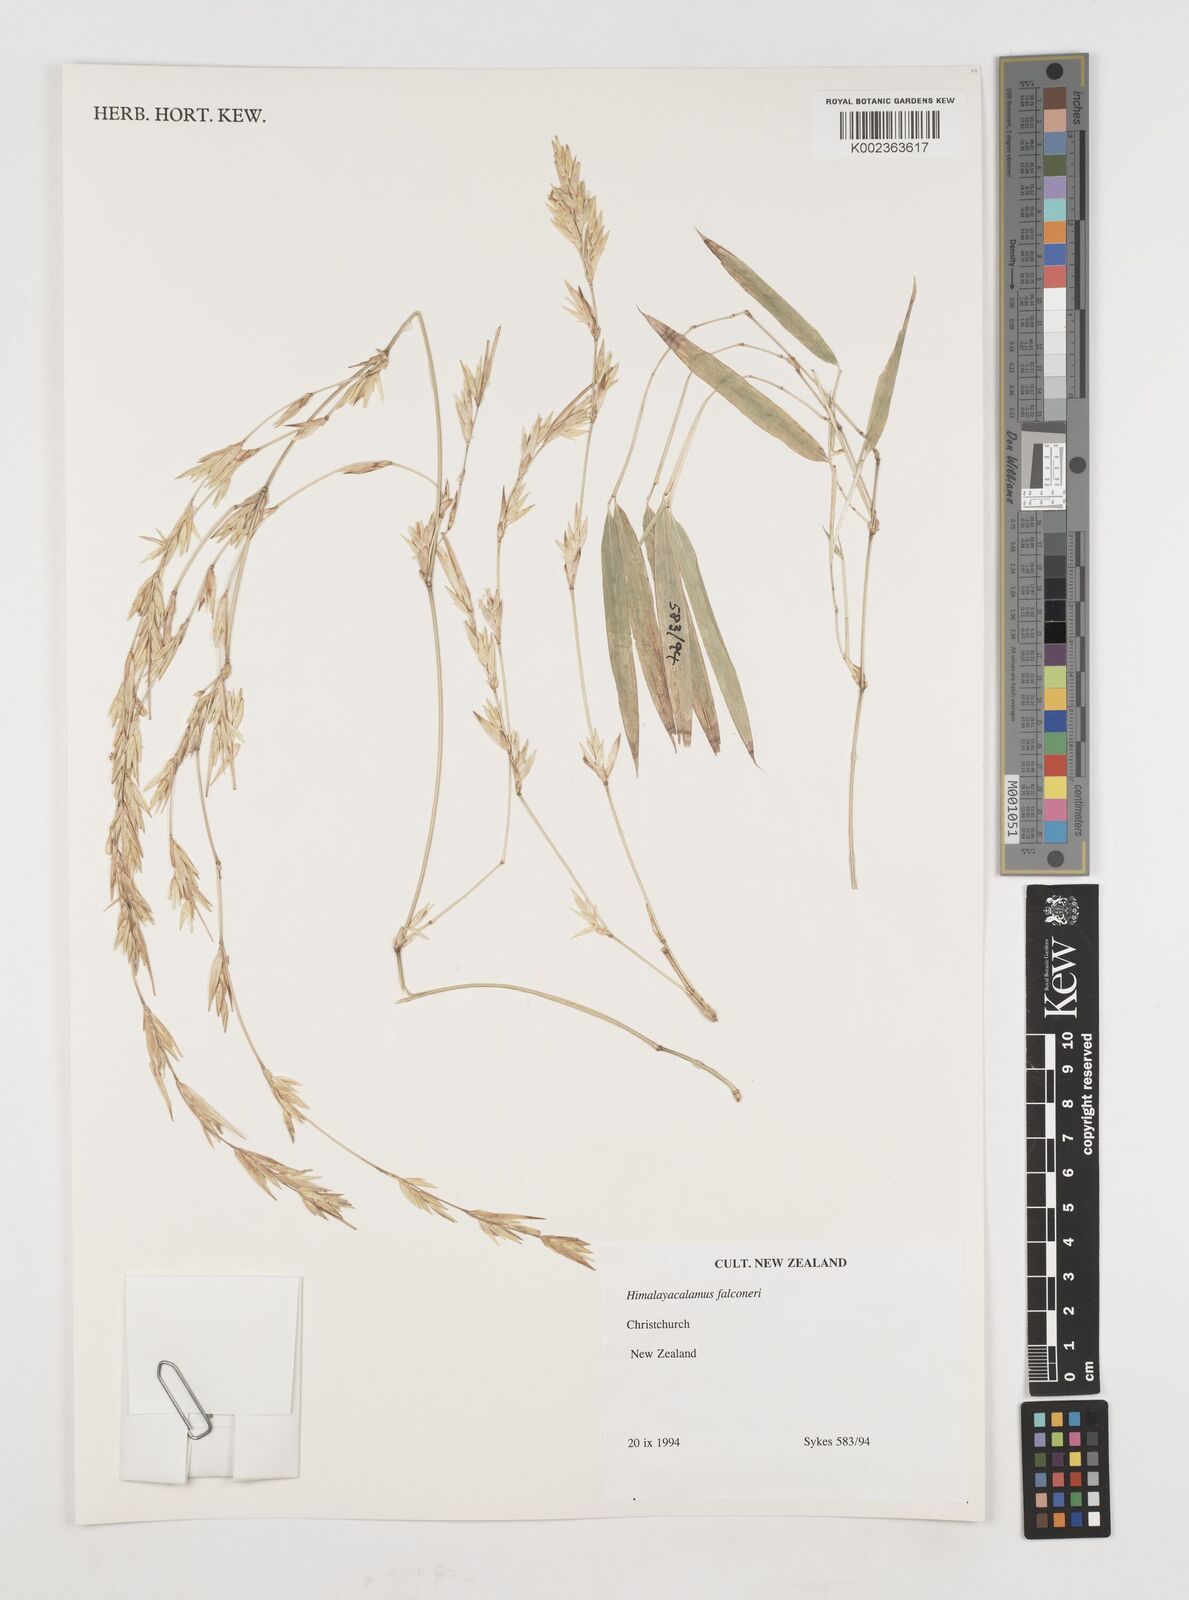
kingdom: Plantae
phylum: Tracheophyta
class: Liliopsida
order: Poales
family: Poaceae
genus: Himalayacalamus
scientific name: Himalayacalamus falconeri
